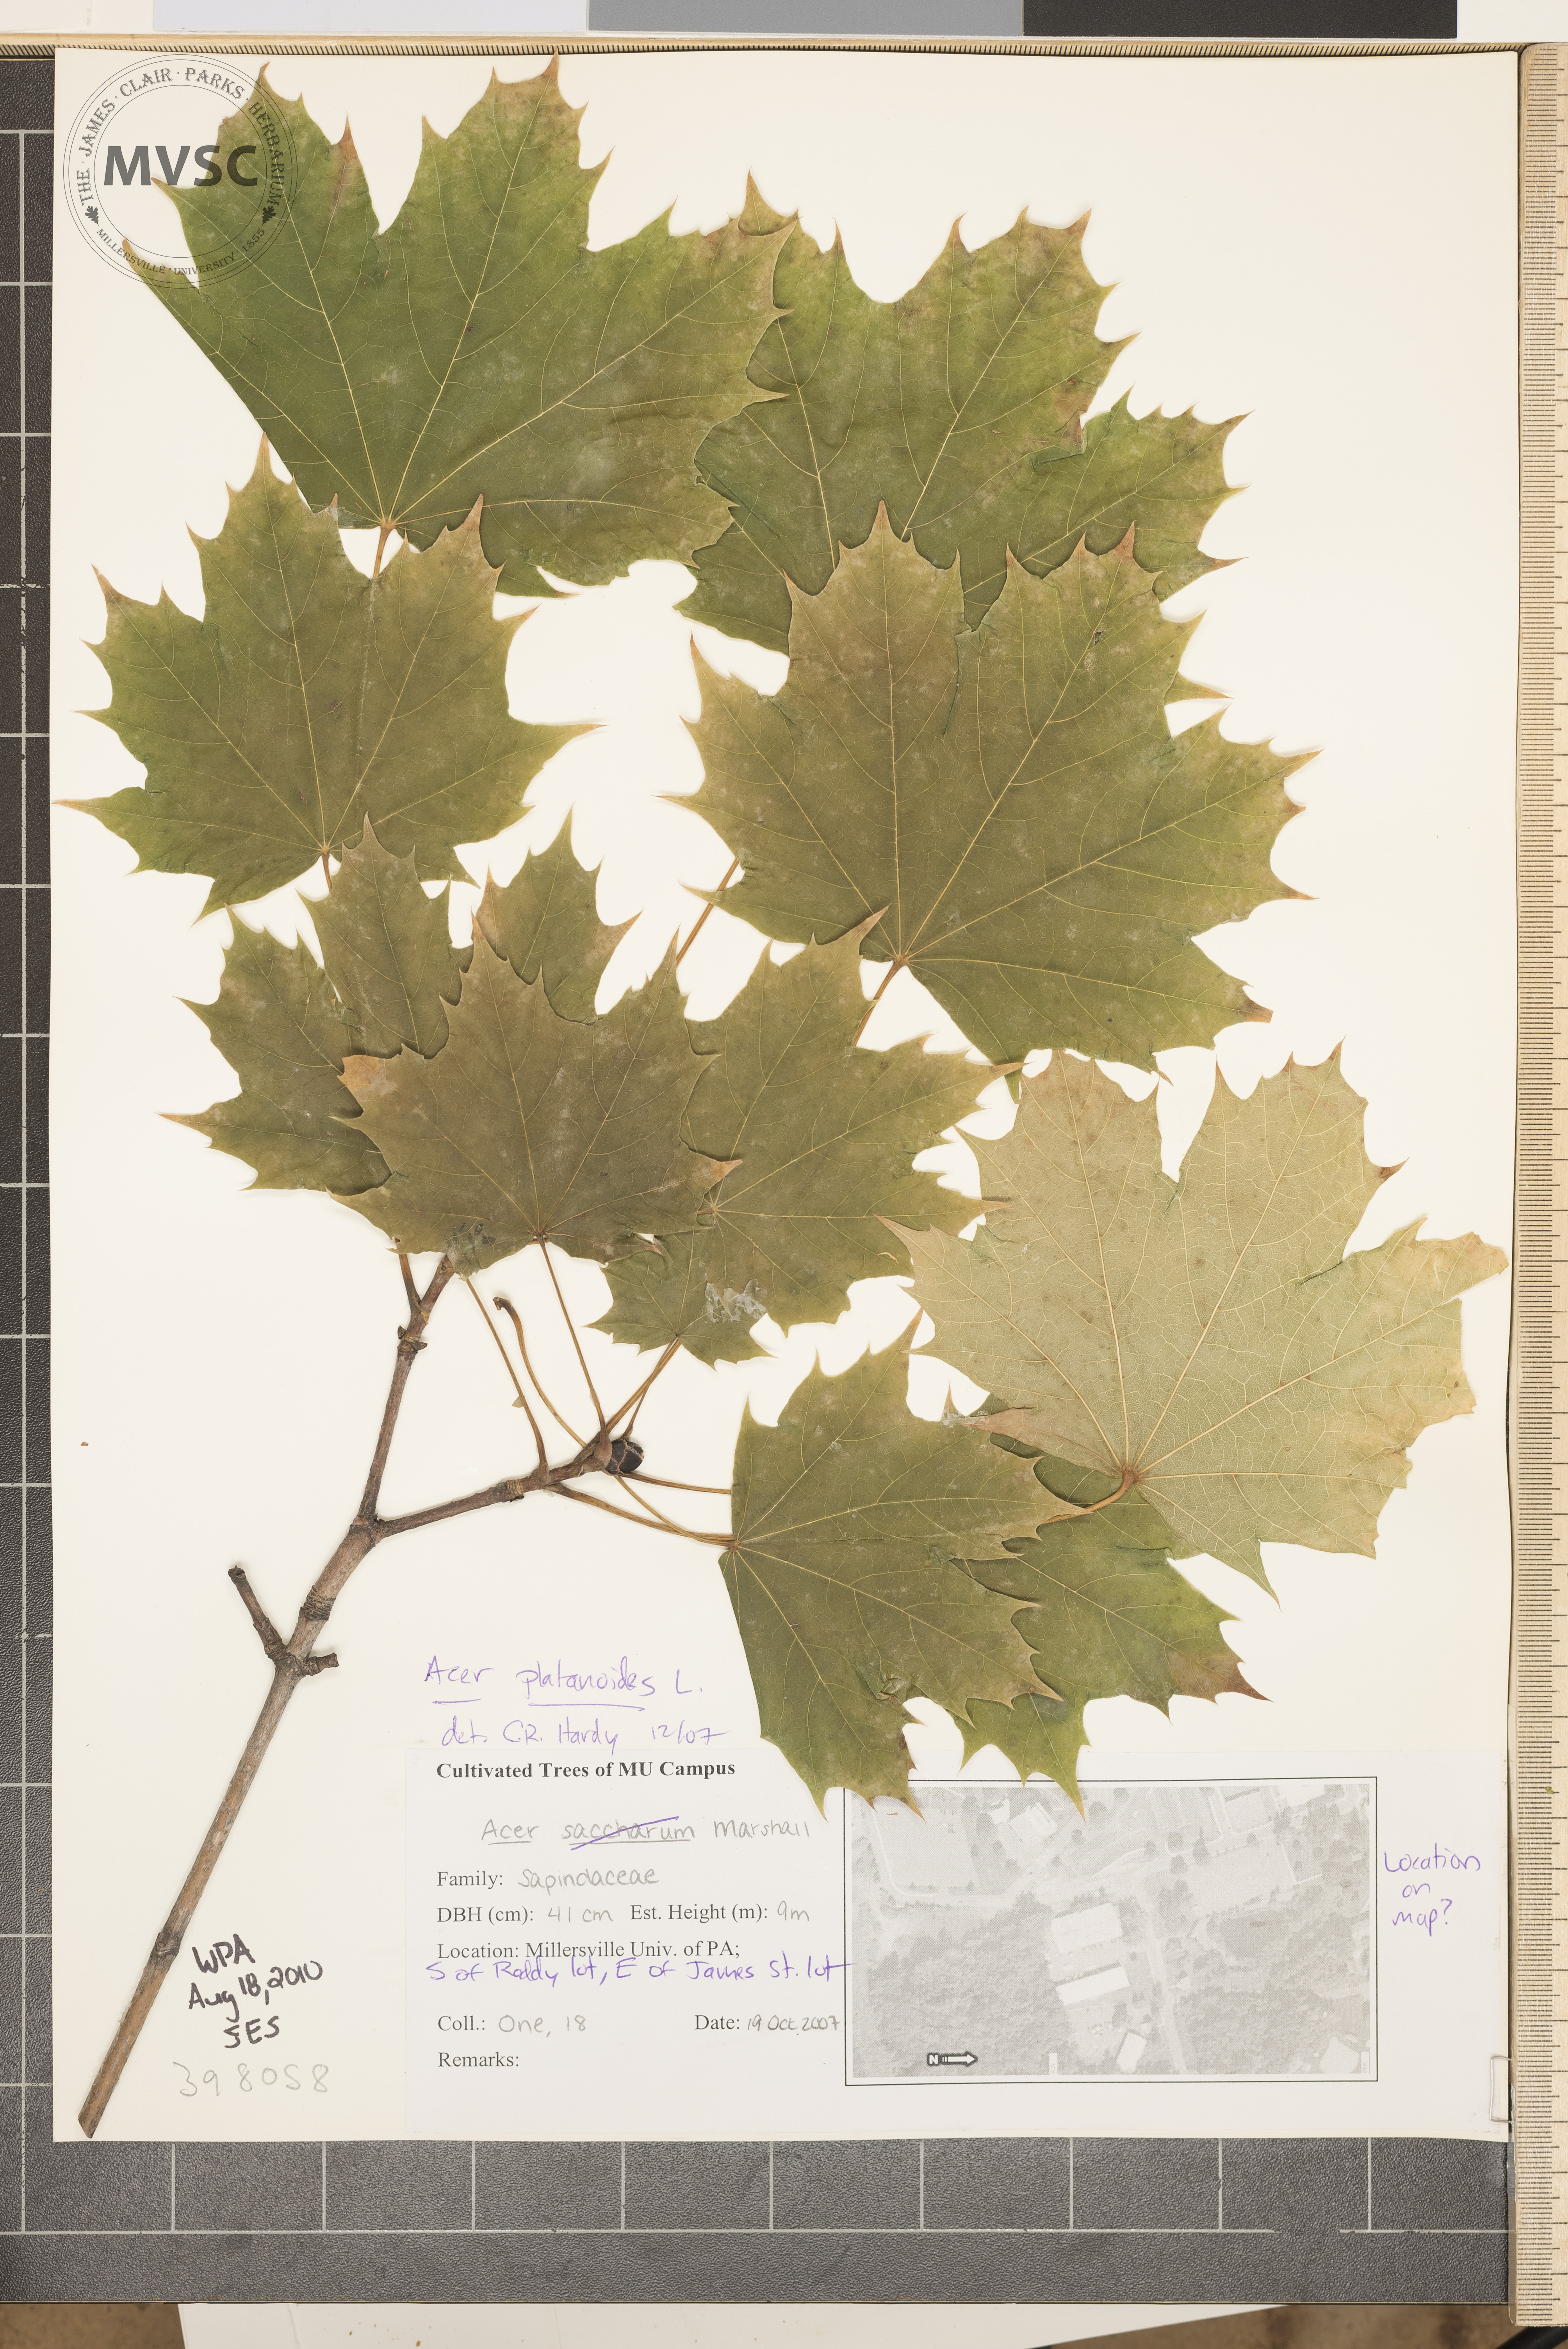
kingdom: Plantae
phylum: Tracheophyta
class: Magnoliopsida
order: Sapindales
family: Sapindaceae
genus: Acer
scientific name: Acer platanoides
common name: Norway maple
